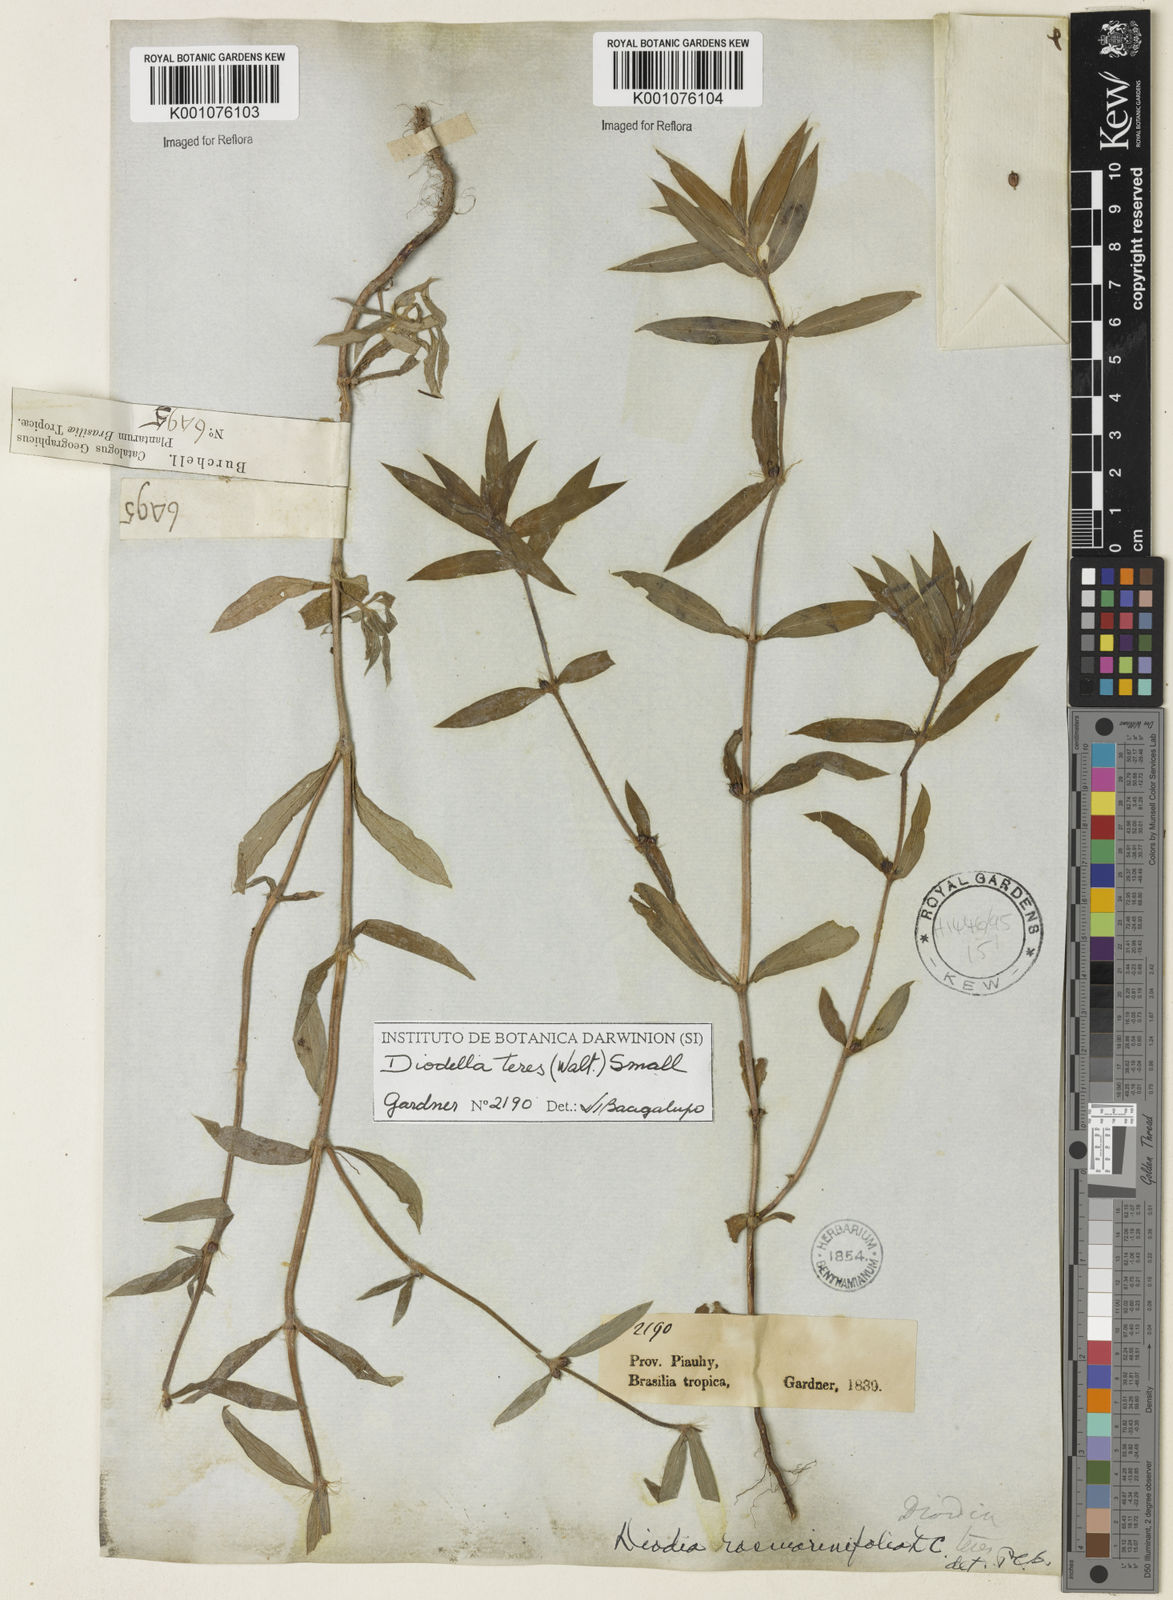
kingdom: Plantae
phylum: Tracheophyta
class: Magnoliopsida
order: Gentianales
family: Rubiaceae
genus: Hexasepalum
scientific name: Hexasepalum teres
